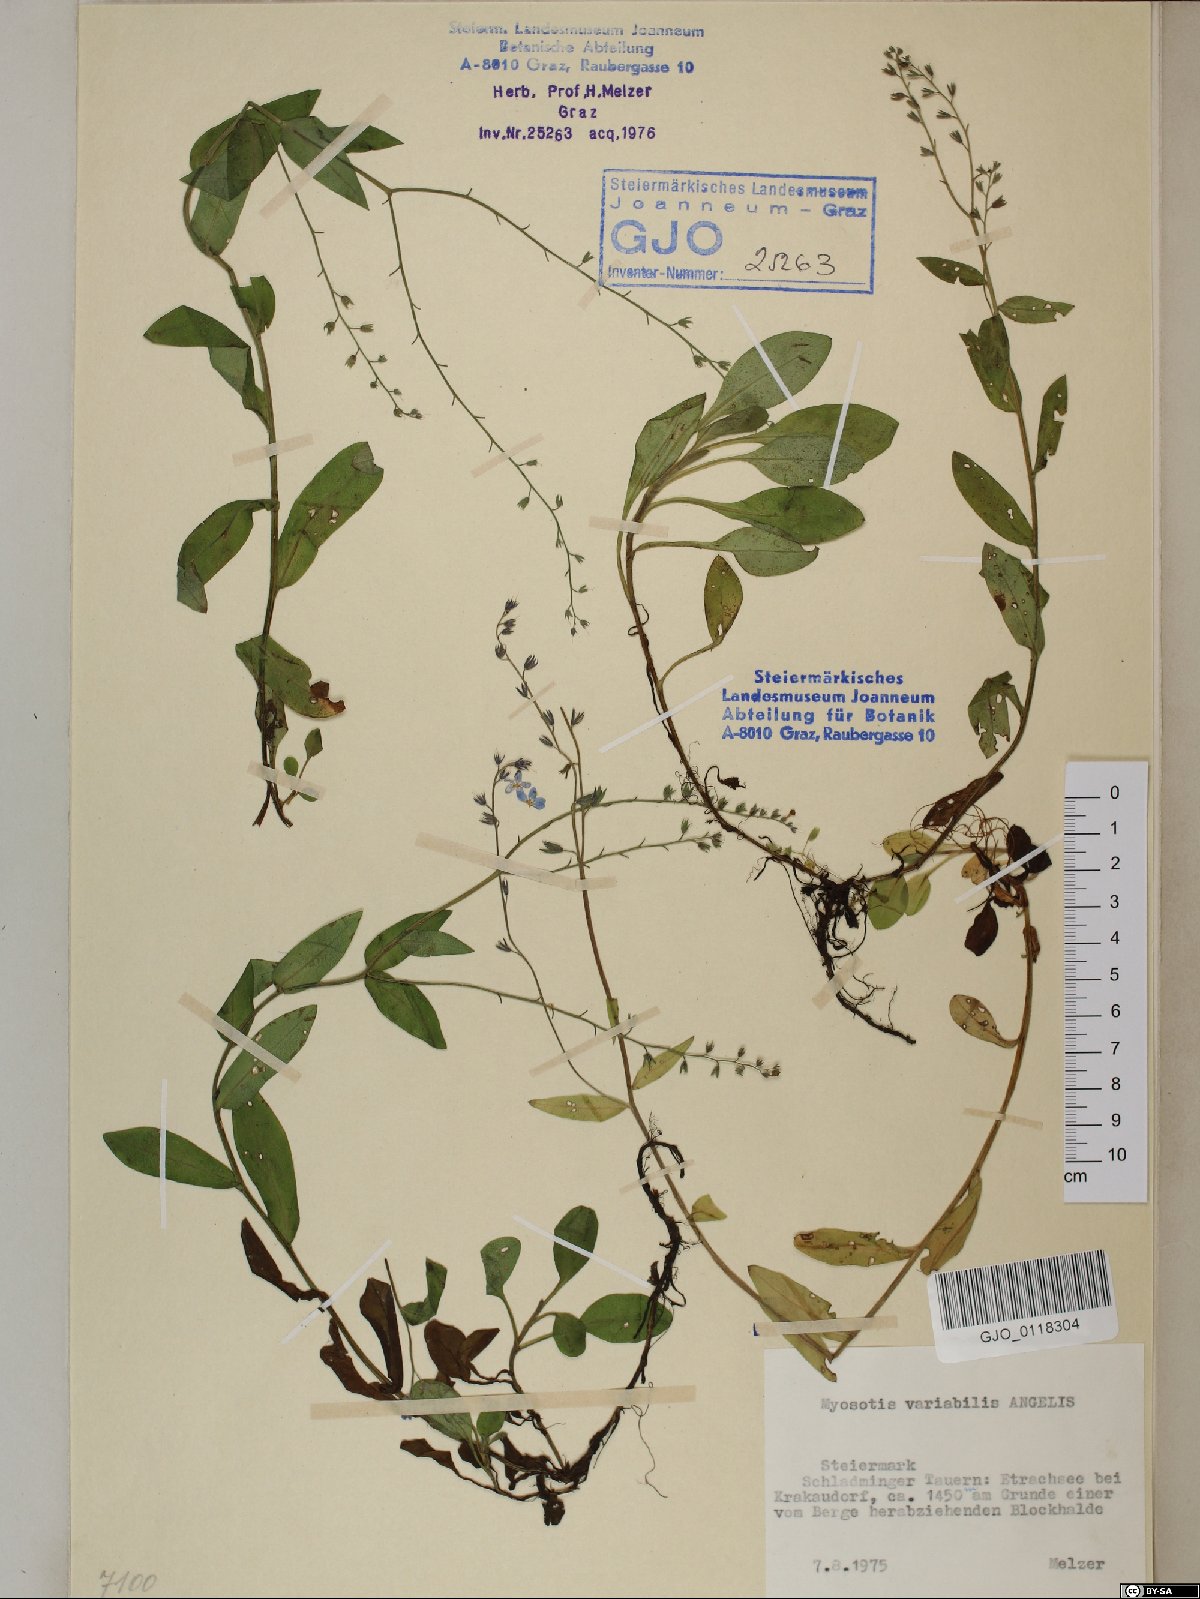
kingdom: Plantae
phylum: Tracheophyta
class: Magnoliopsida
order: Boraginales
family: Boraginaceae
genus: Myosotis
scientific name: Myosotis decumbens
